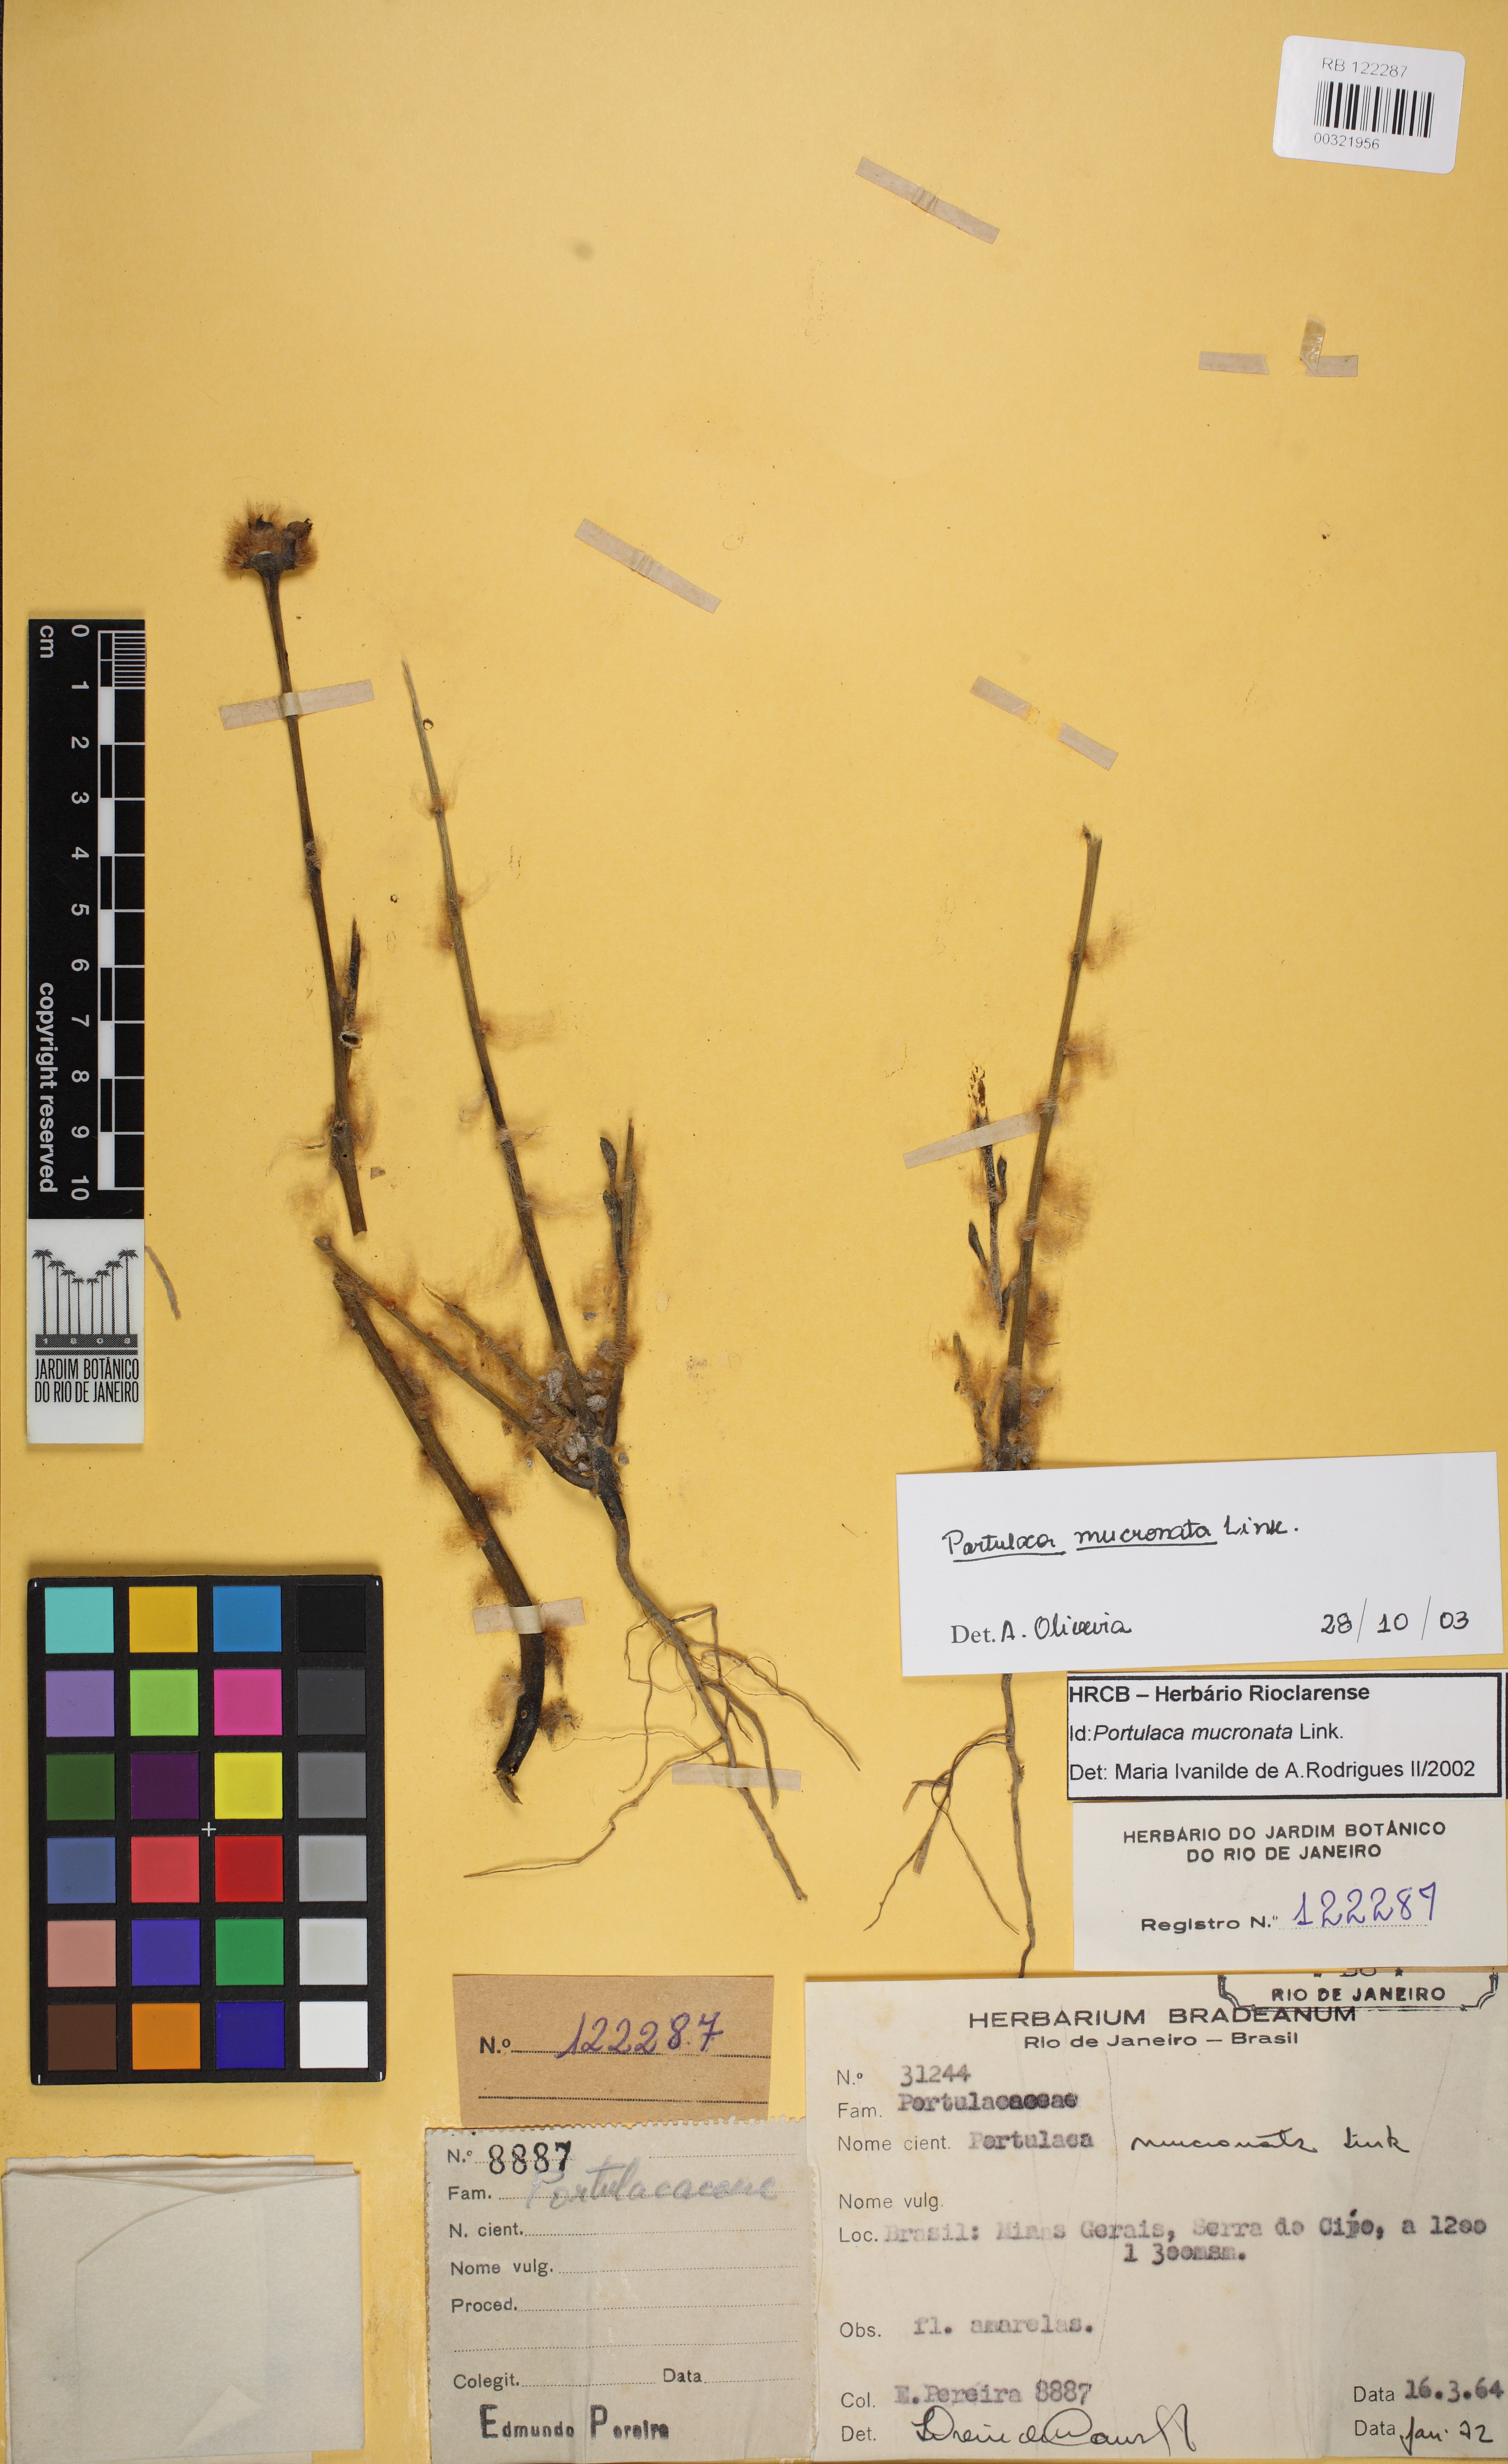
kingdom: Plantae
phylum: Tracheophyta
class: Magnoliopsida
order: Caryophyllales
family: Portulacaceae
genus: Portulaca
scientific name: Portulaca mucronata
